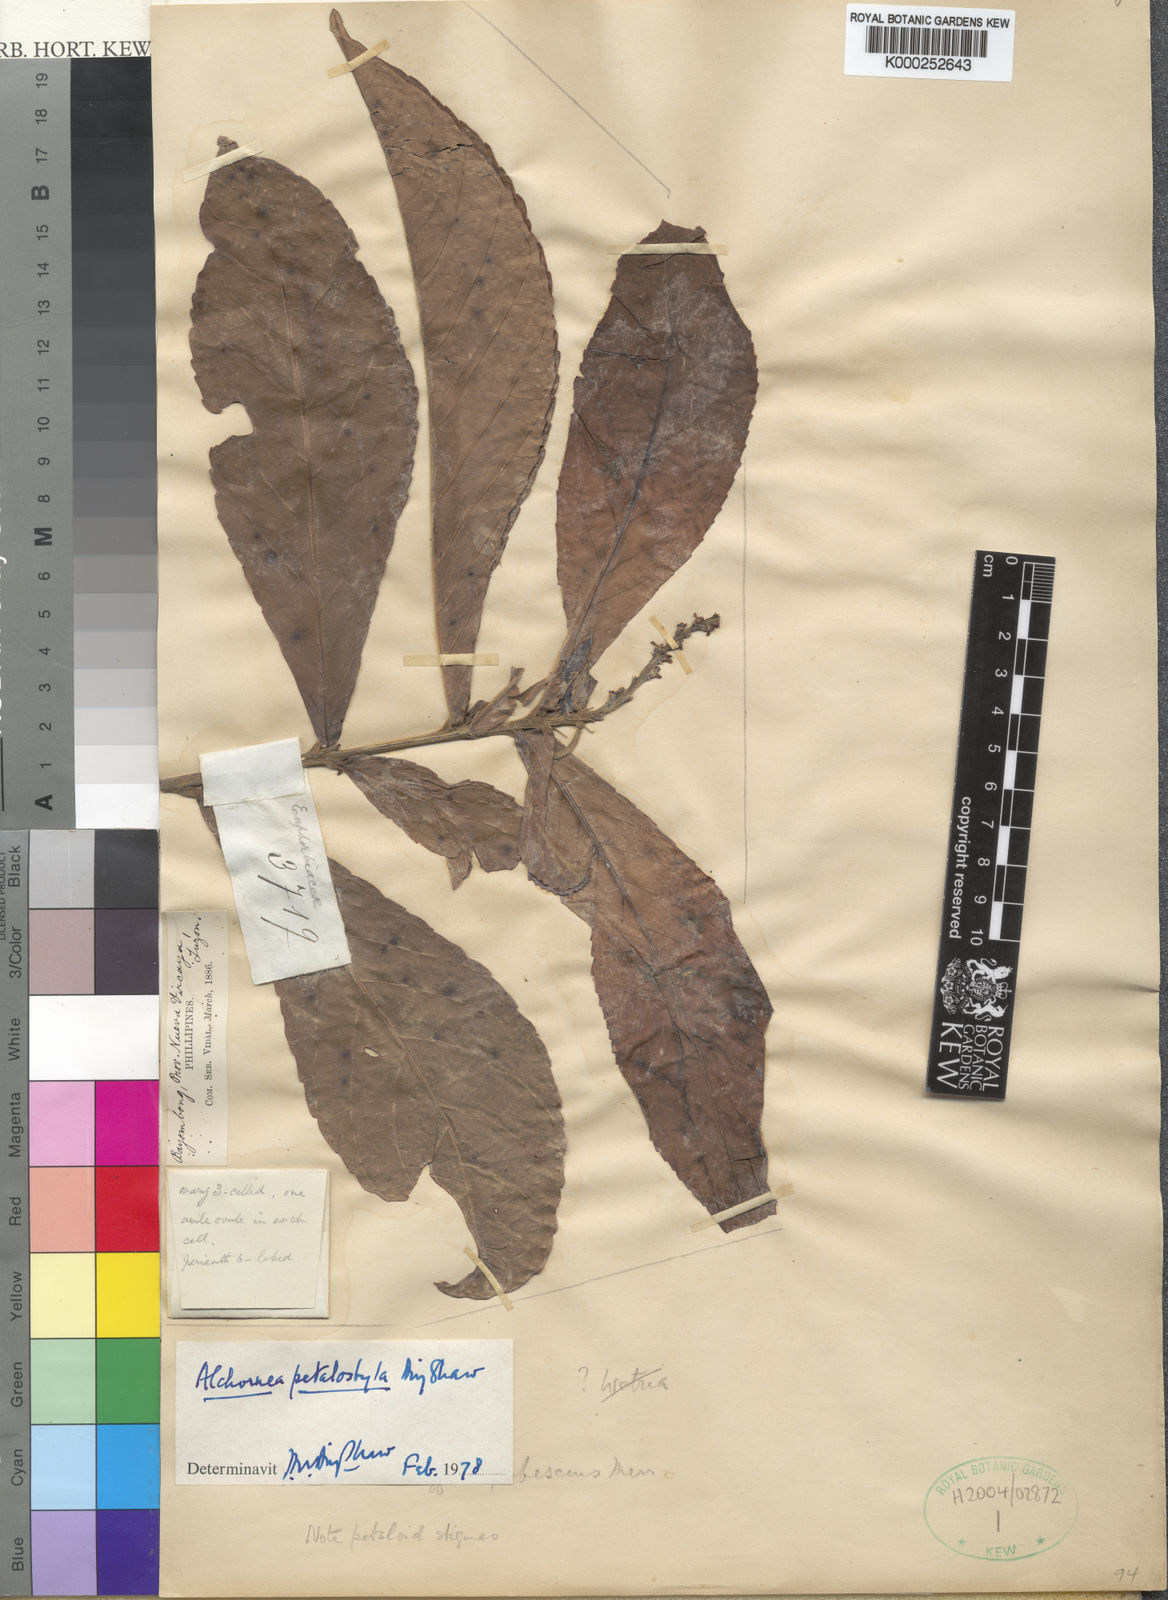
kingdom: Plantae
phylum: Tracheophyta
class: Magnoliopsida
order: Malpighiales
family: Euphorbiaceae
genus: Alchornea
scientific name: Alchornea
